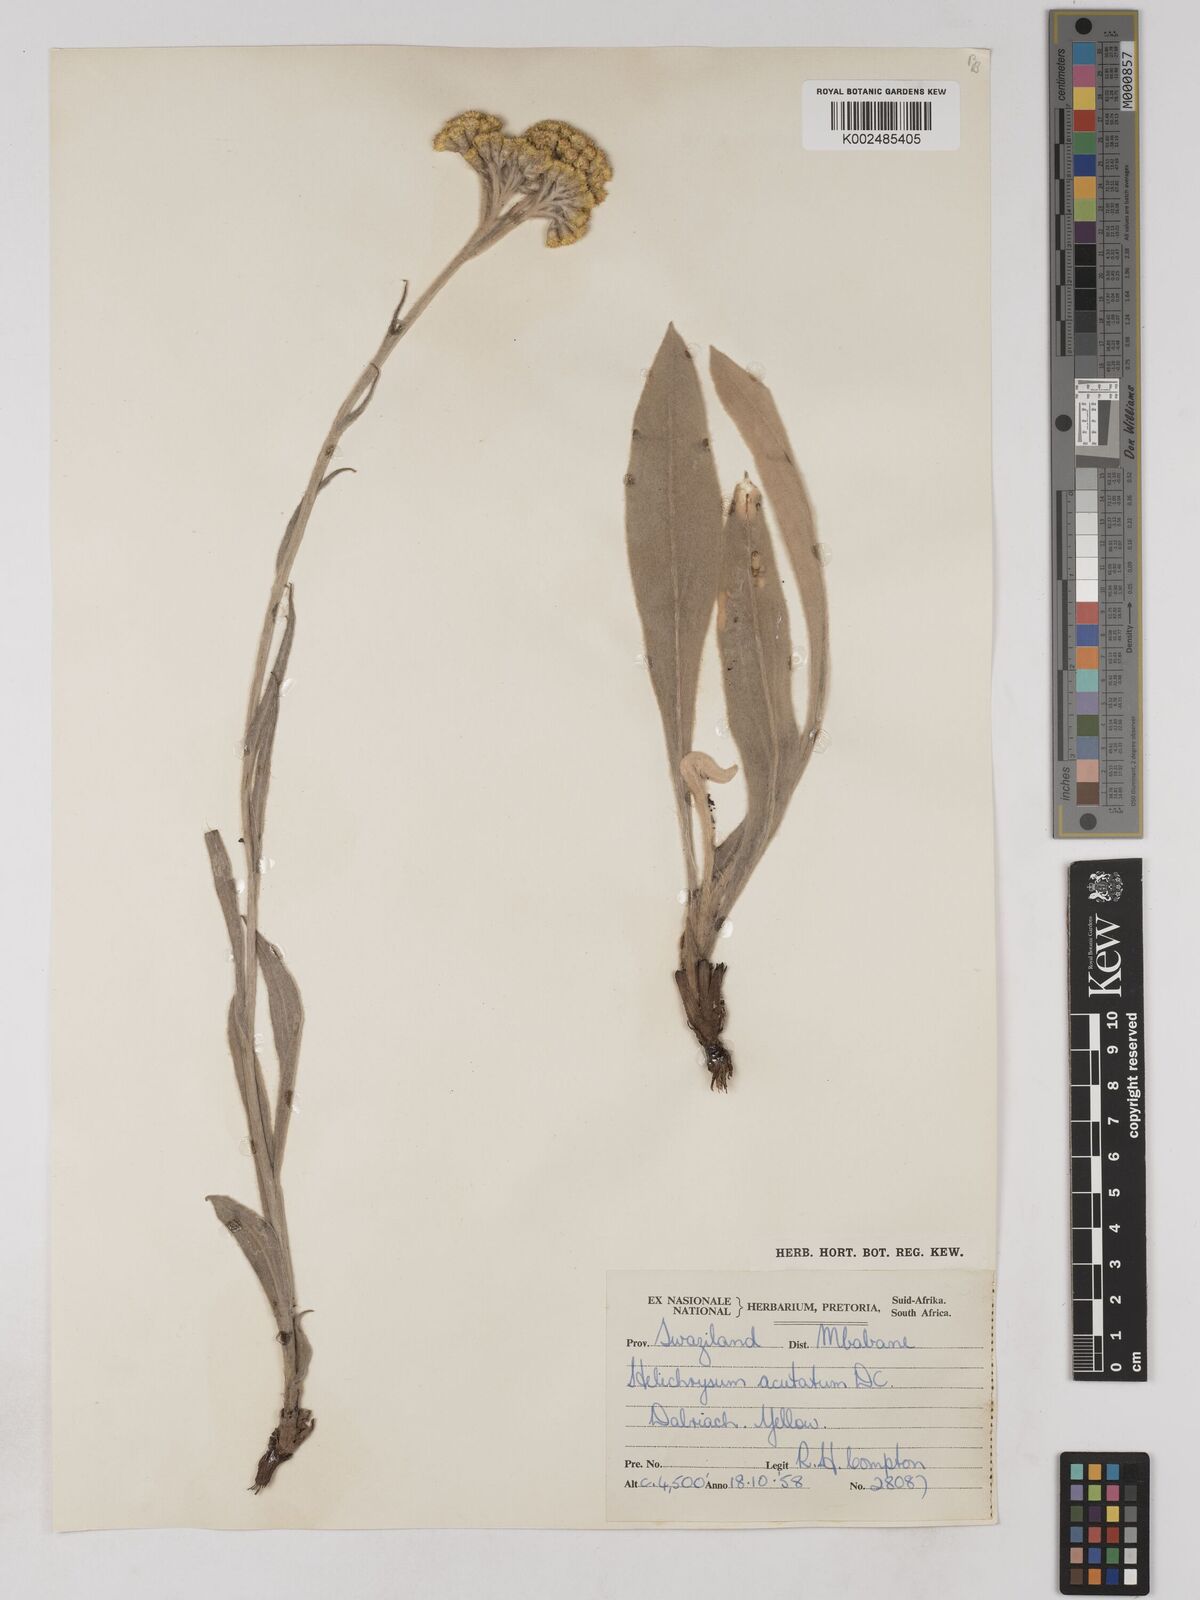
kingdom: Plantae
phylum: Tracheophyta
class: Magnoliopsida
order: Asterales
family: Asteraceae
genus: Helichrysum
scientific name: Helichrysum acutatum
